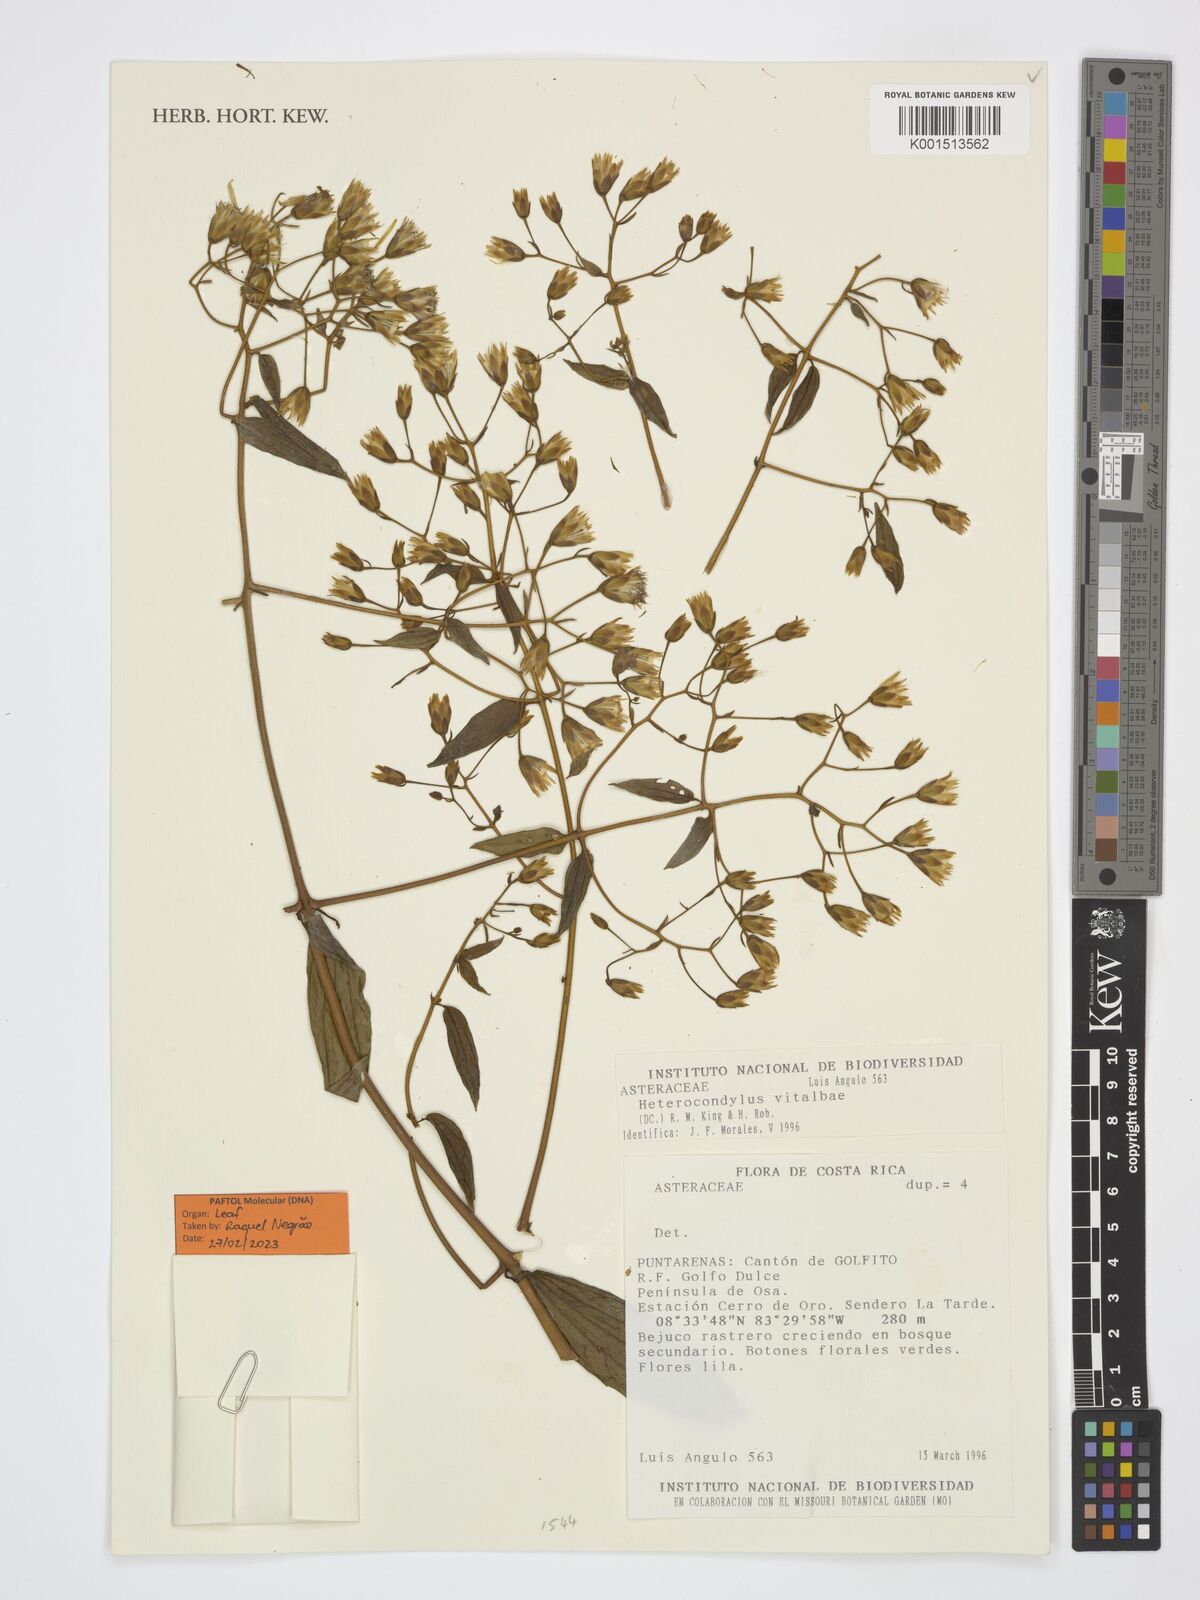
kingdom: Plantae
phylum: Tracheophyta
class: Magnoliopsida
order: Asterales
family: Asteraceae
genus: Heterocondylus
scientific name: Heterocondylus vitalbae
